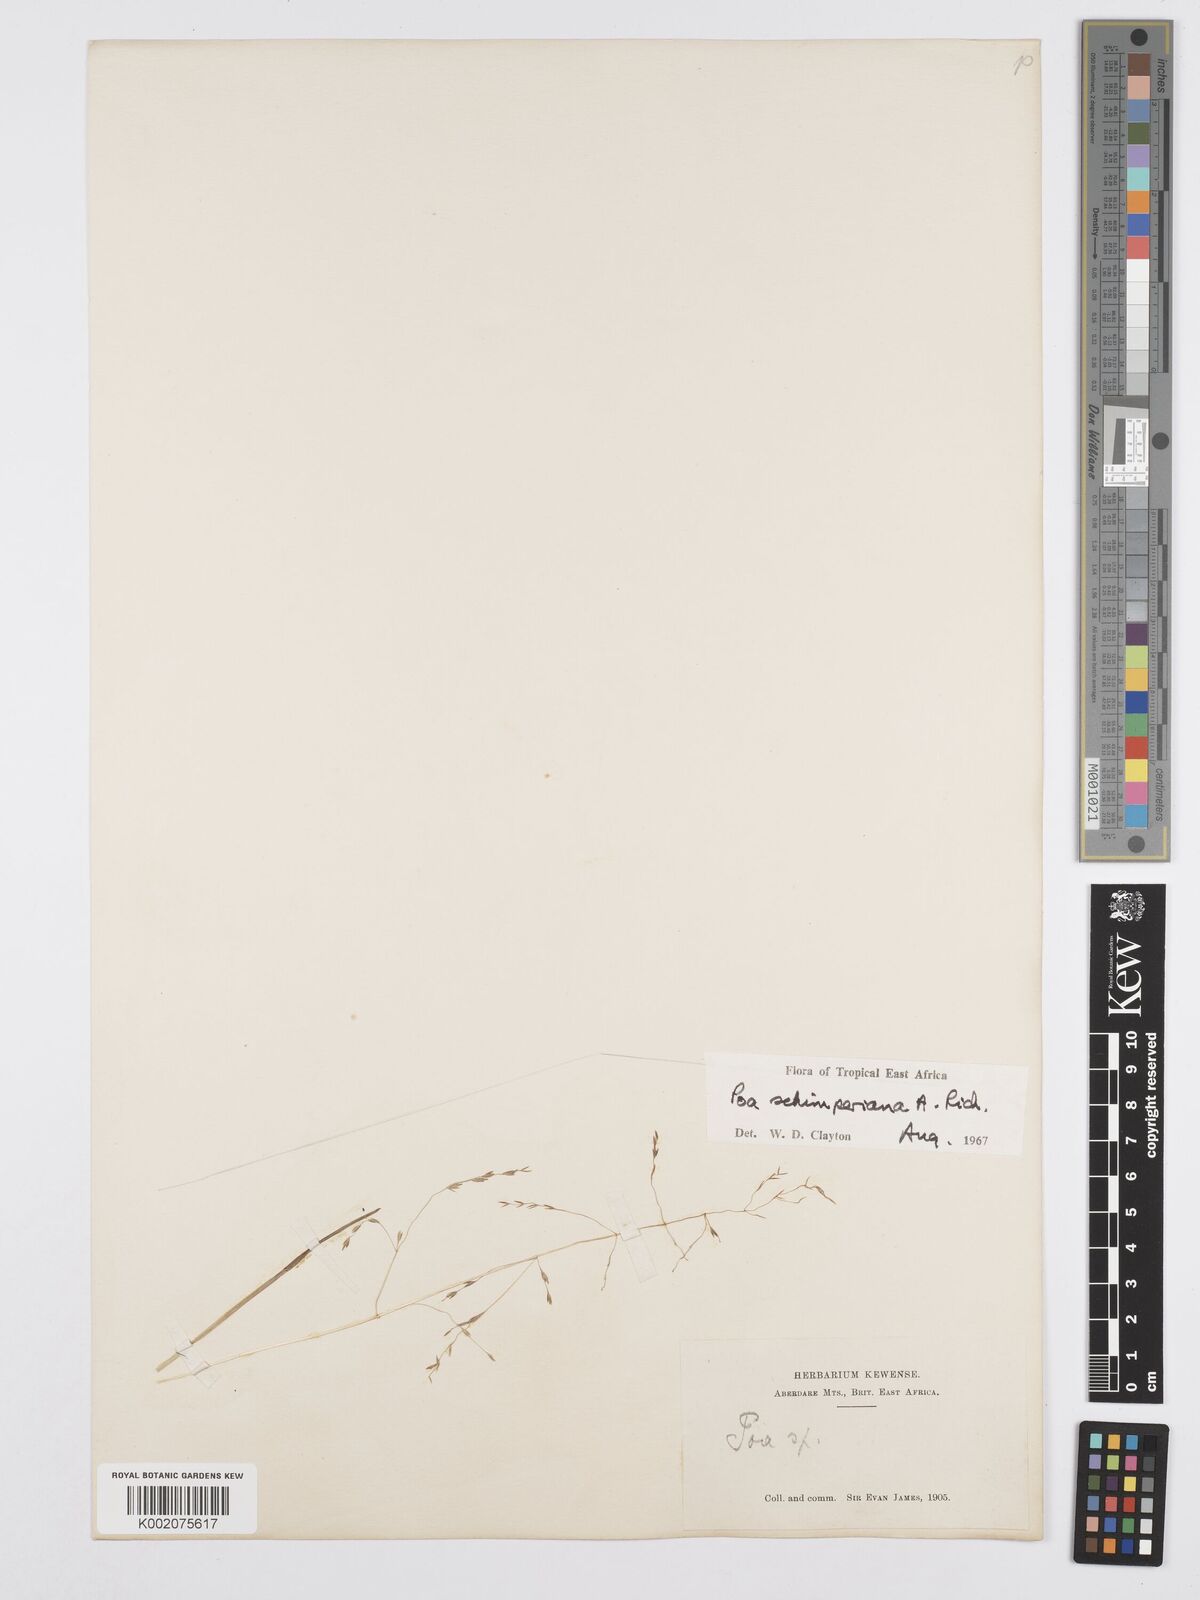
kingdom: Plantae
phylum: Tracheophyta
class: Liliopsida
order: Poales
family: Poaceae
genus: Poa
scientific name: Poa schimperiana
